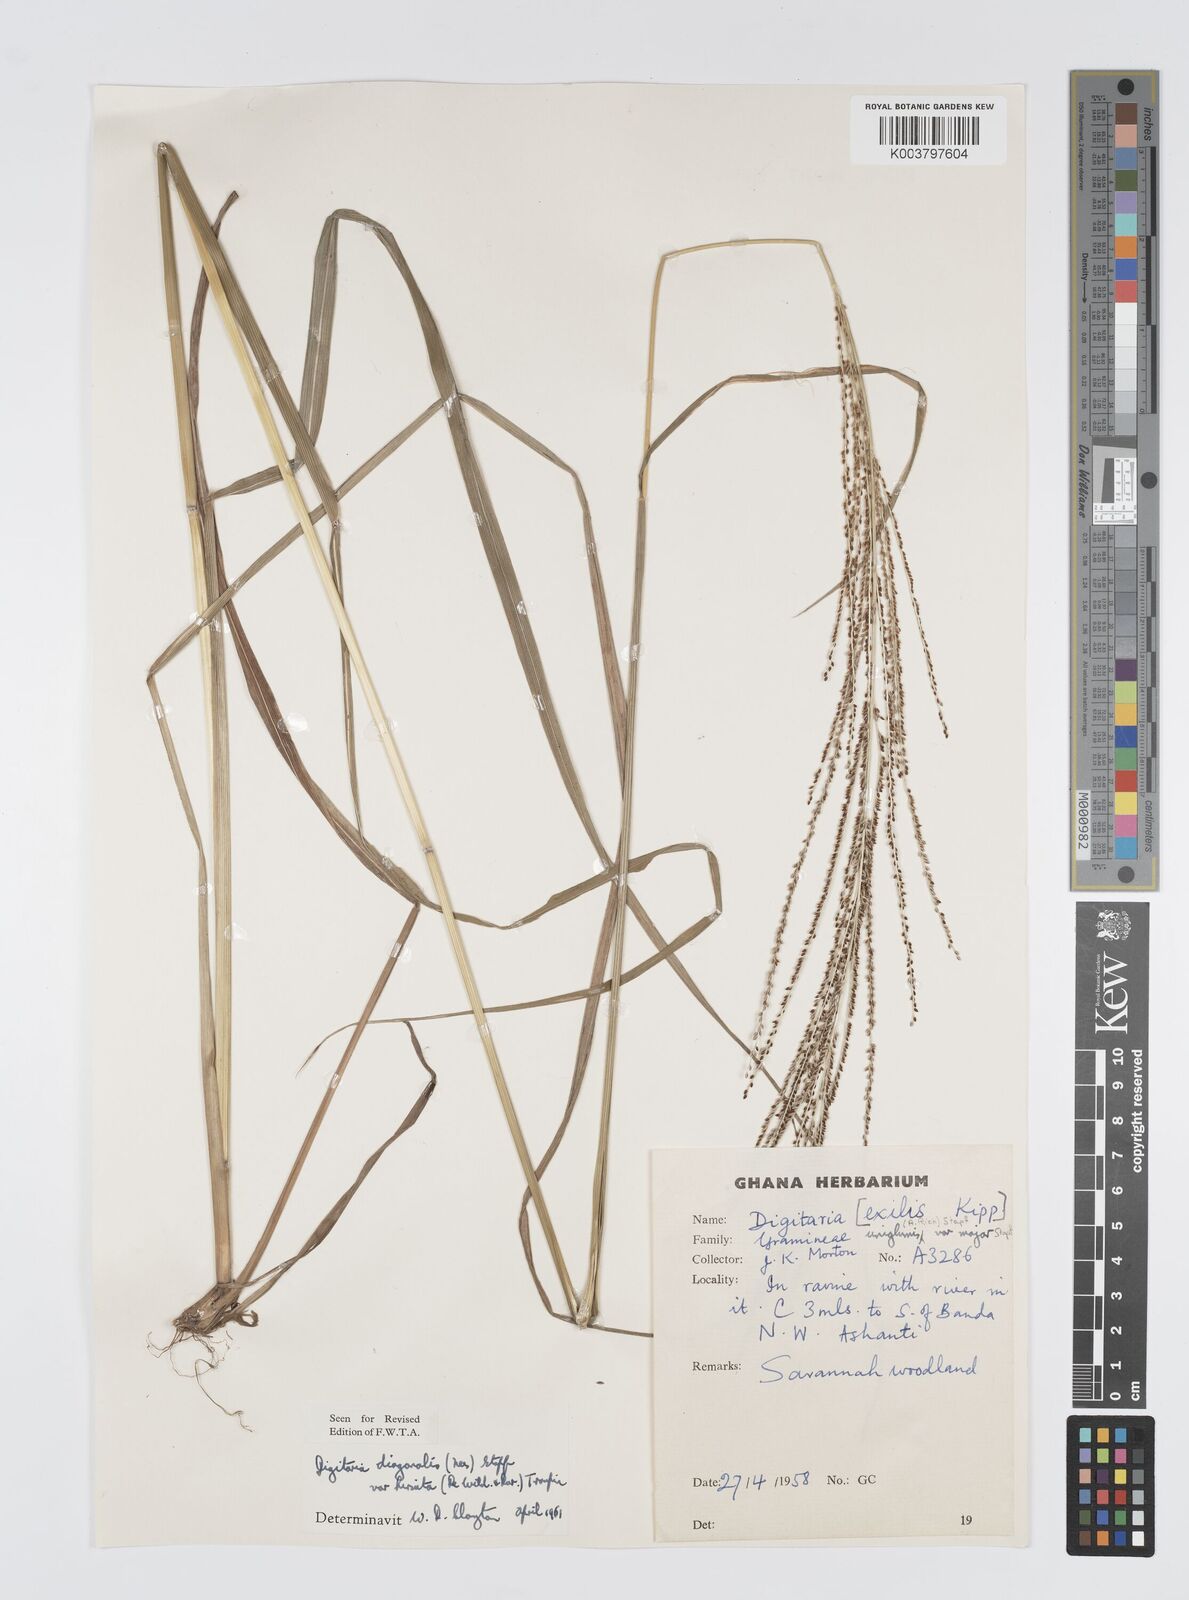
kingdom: Plantae
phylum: Tracheophyta
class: Liliopsida
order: Poales
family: Poaceae
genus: Digitaria
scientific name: Digitaria diagonalis
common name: Brown-seed finger grass
